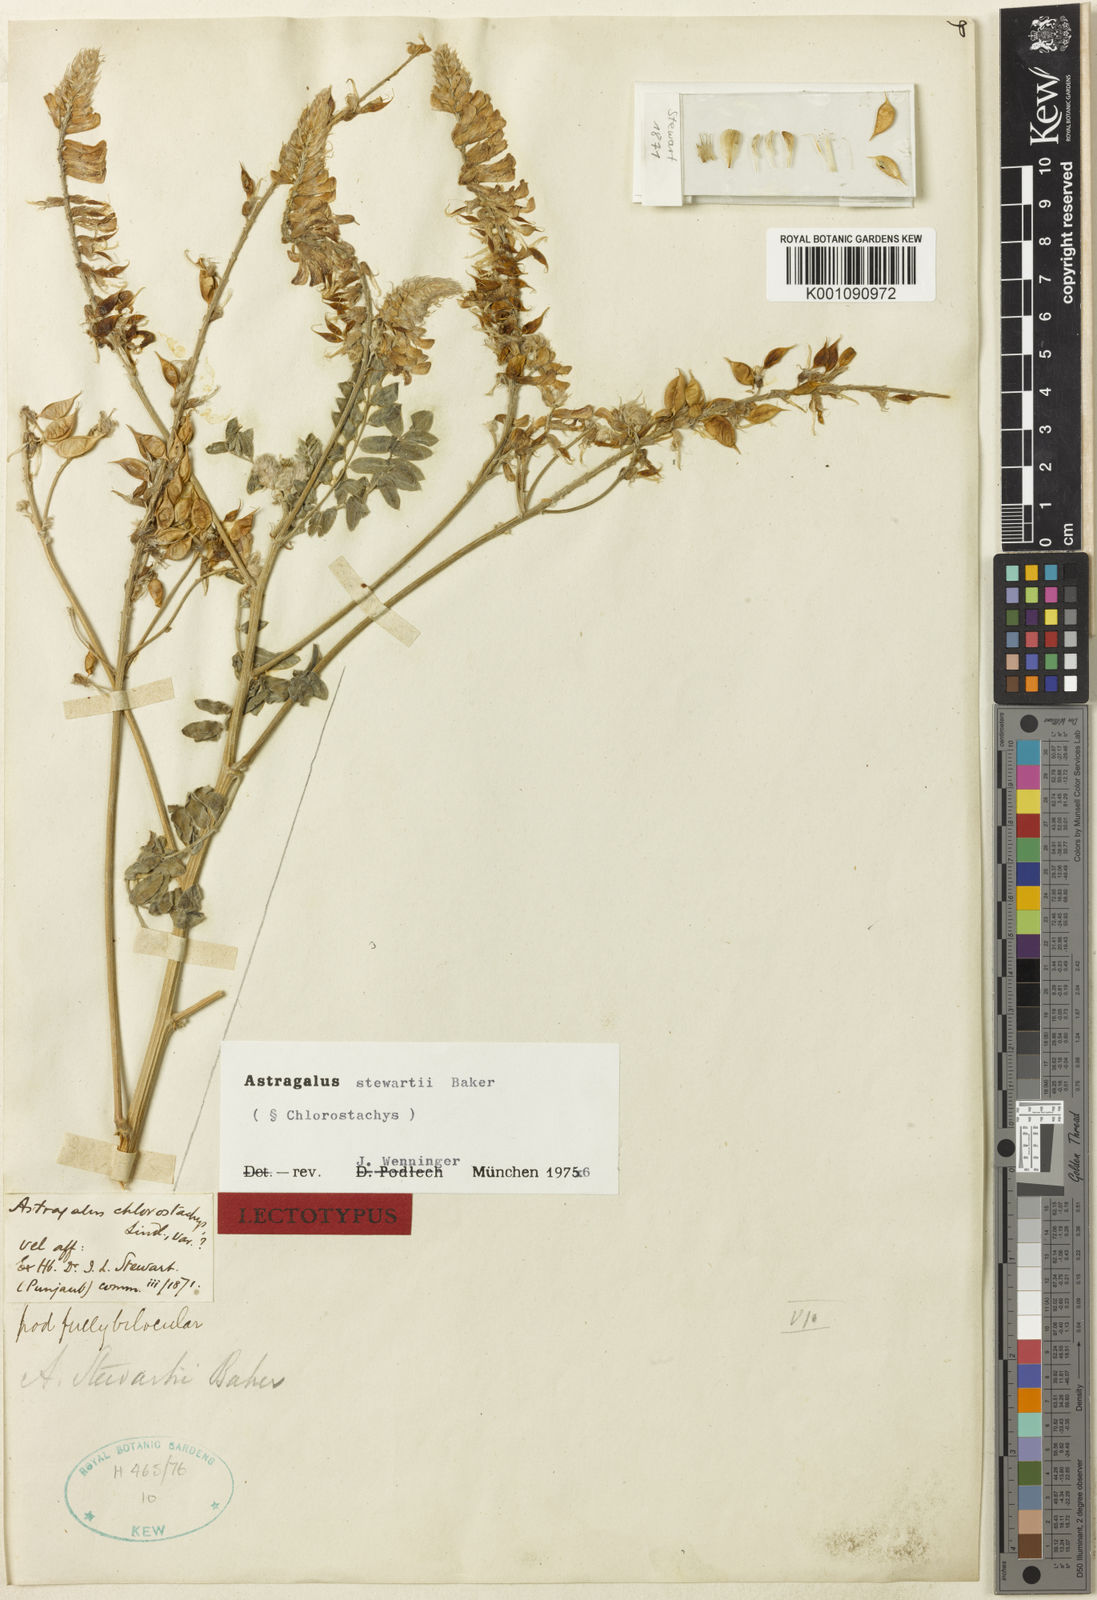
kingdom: Plantae
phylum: Tracheophyta
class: Magnoliopsida
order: Fabales
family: Fabaceae
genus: Astragalus
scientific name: Astragalus
